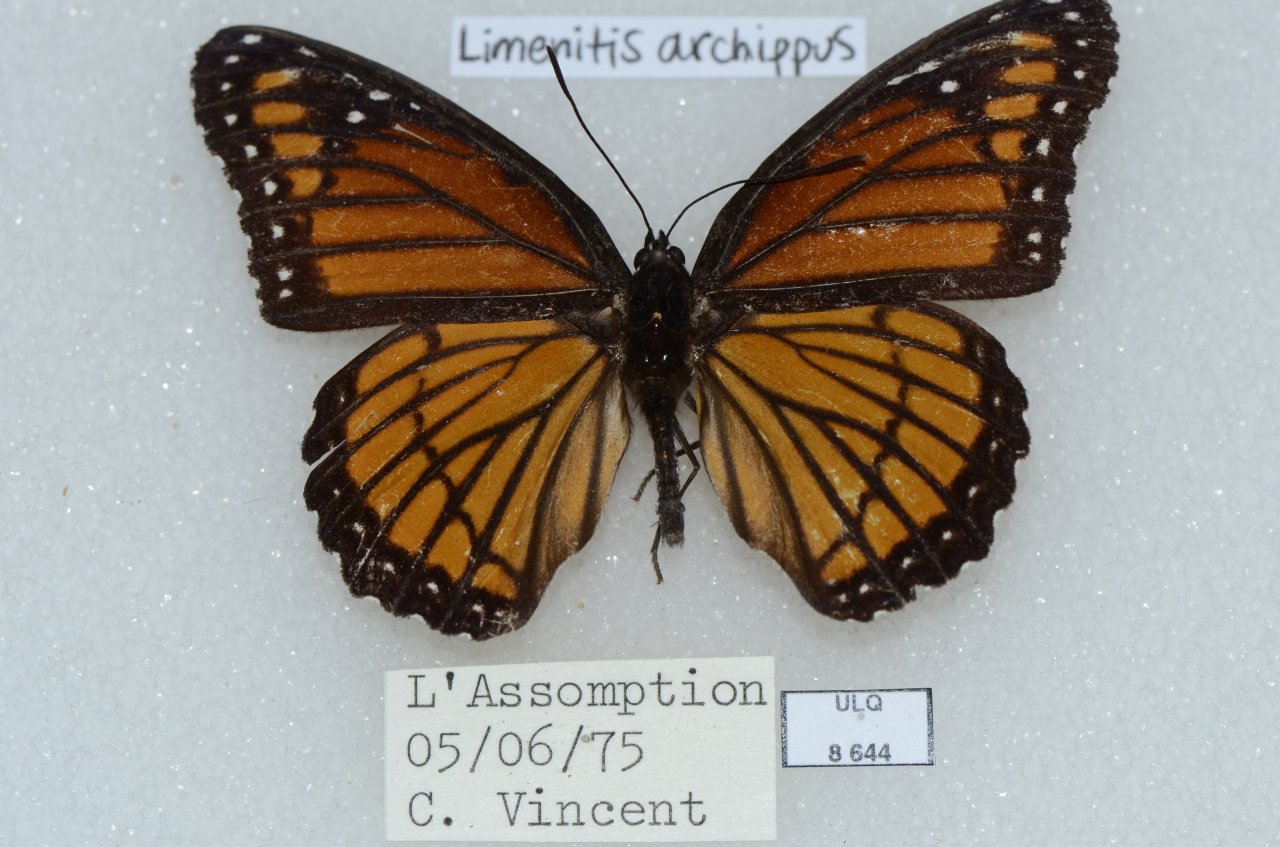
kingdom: Animalia
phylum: Arthropoda
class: Insecta
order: Lepidoptera
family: Nymphalidae
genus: Limenitis
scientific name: Limenitis archippus
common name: Viceroy
